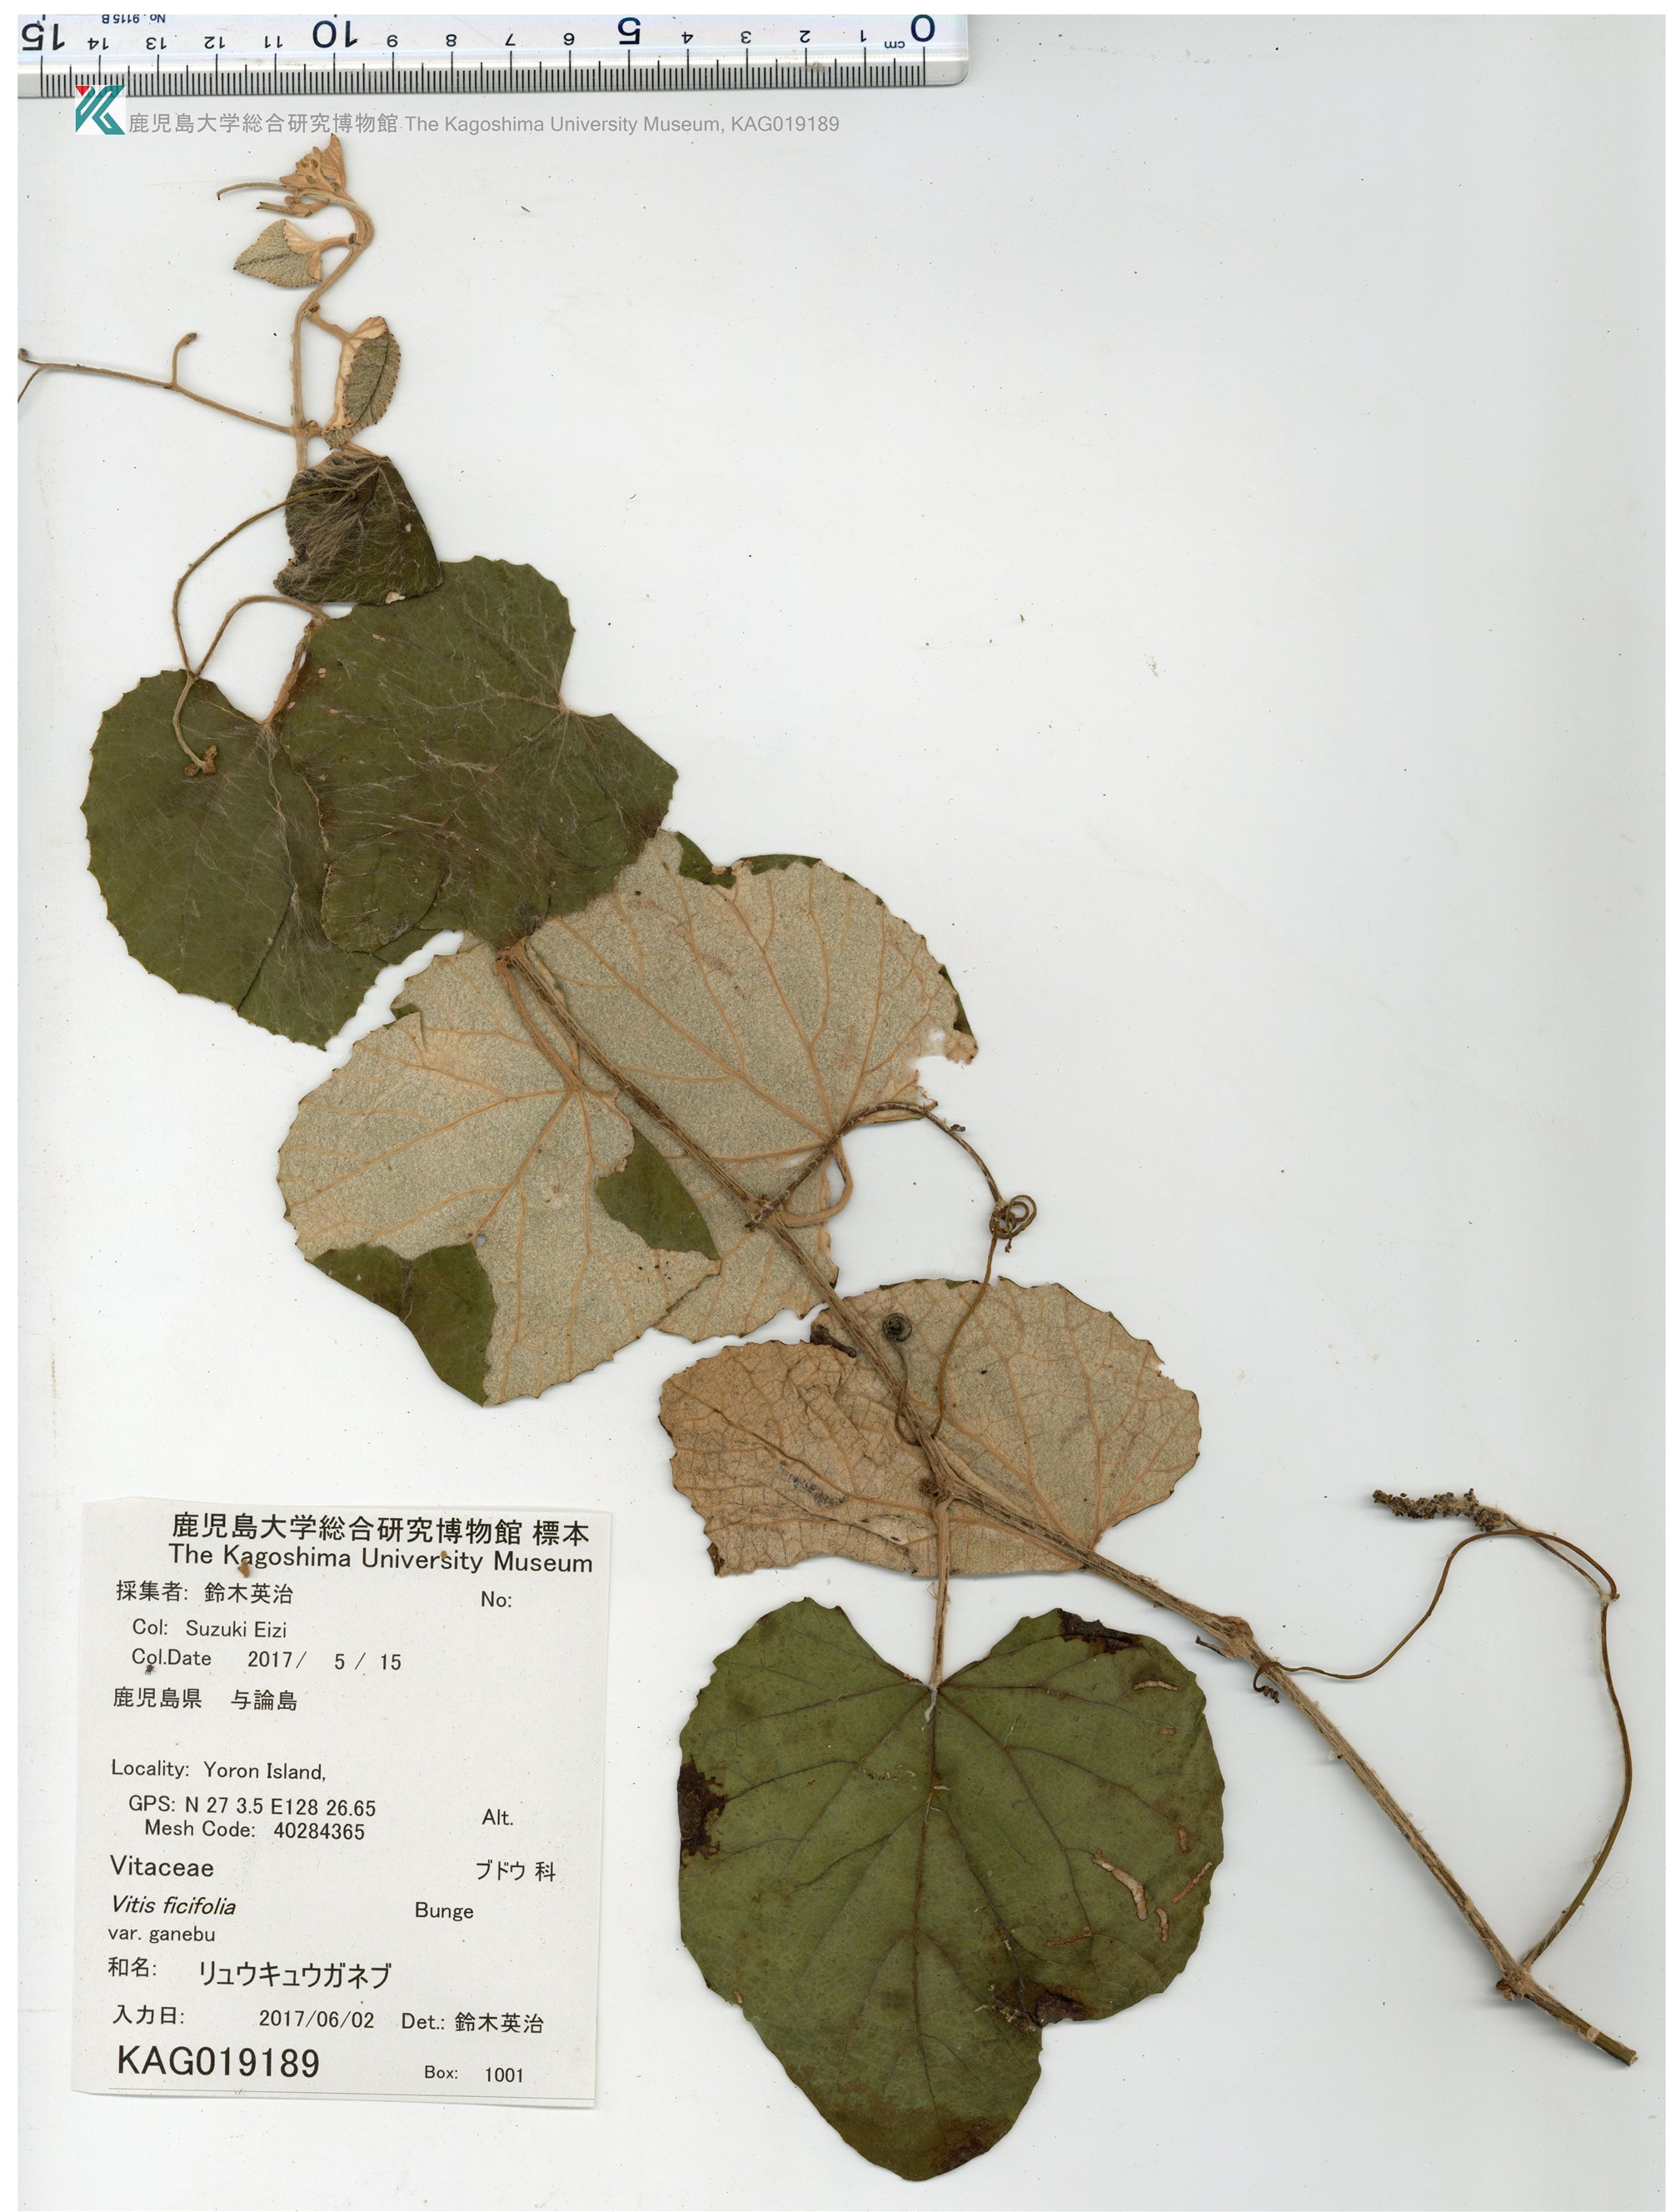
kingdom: Plantae
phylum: Tracheophyta
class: Magnoliopsida
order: Vitales
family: Vitaceae
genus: Vitis
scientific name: Vitis ficifolia
